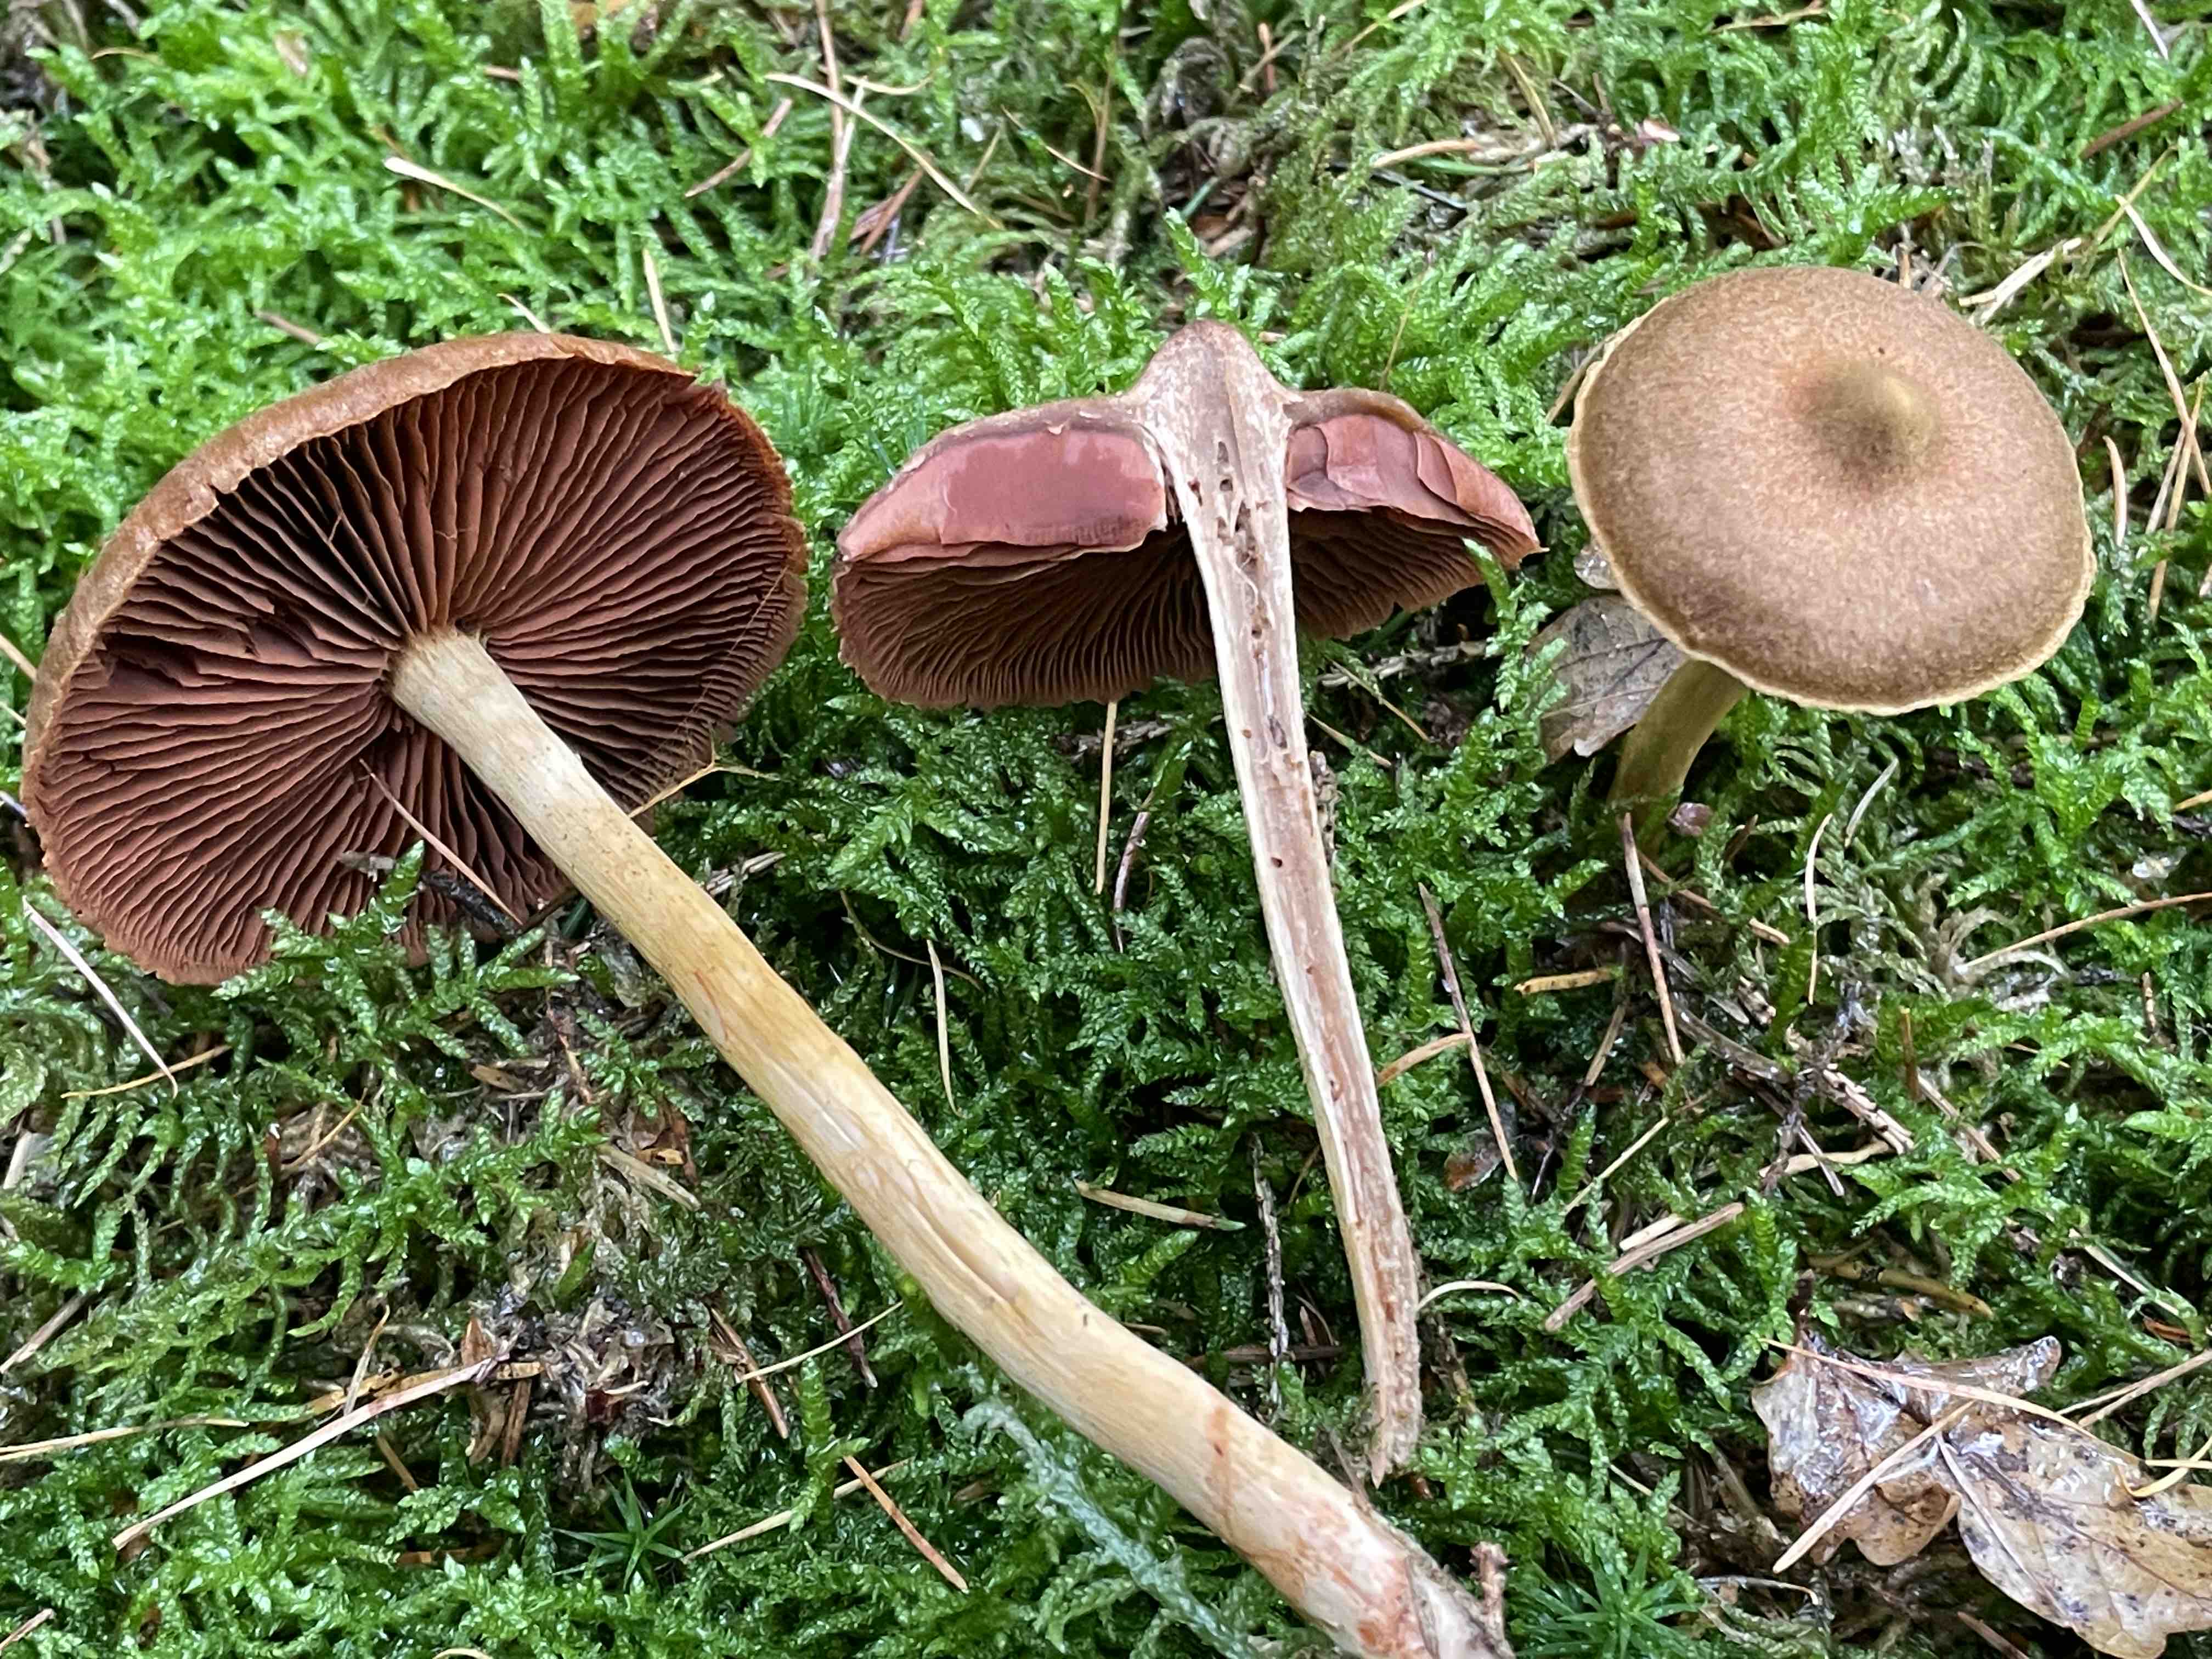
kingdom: Fungi
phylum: Basidiomycota
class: Agaricomycetes
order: Agaricales
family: Cortinariaceae
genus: Cortinarius
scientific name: Cortinarius
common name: cinnoberbladet slørhat
